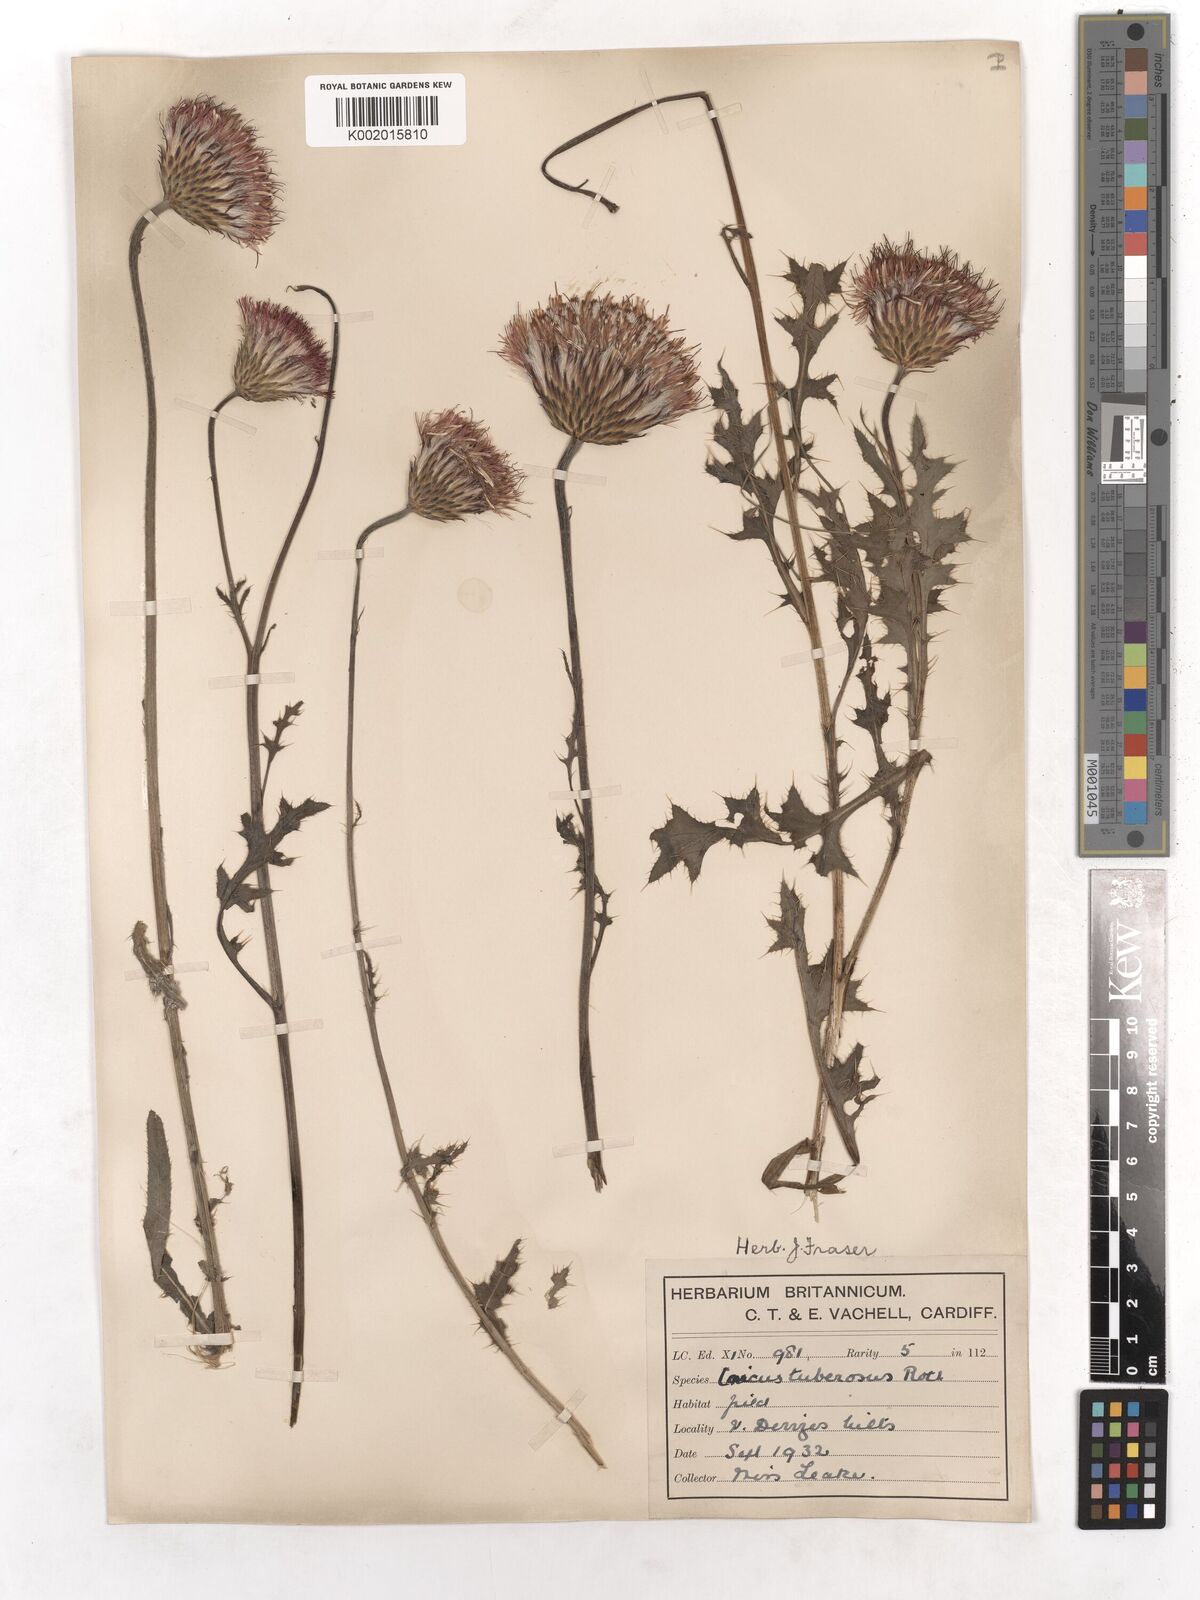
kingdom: Plantae
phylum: Tracheophyta
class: Magnoliopsida
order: Asterales
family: Asteraceae
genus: Cirsium
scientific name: Cirsium tuberosum
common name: Tuberous thistle
